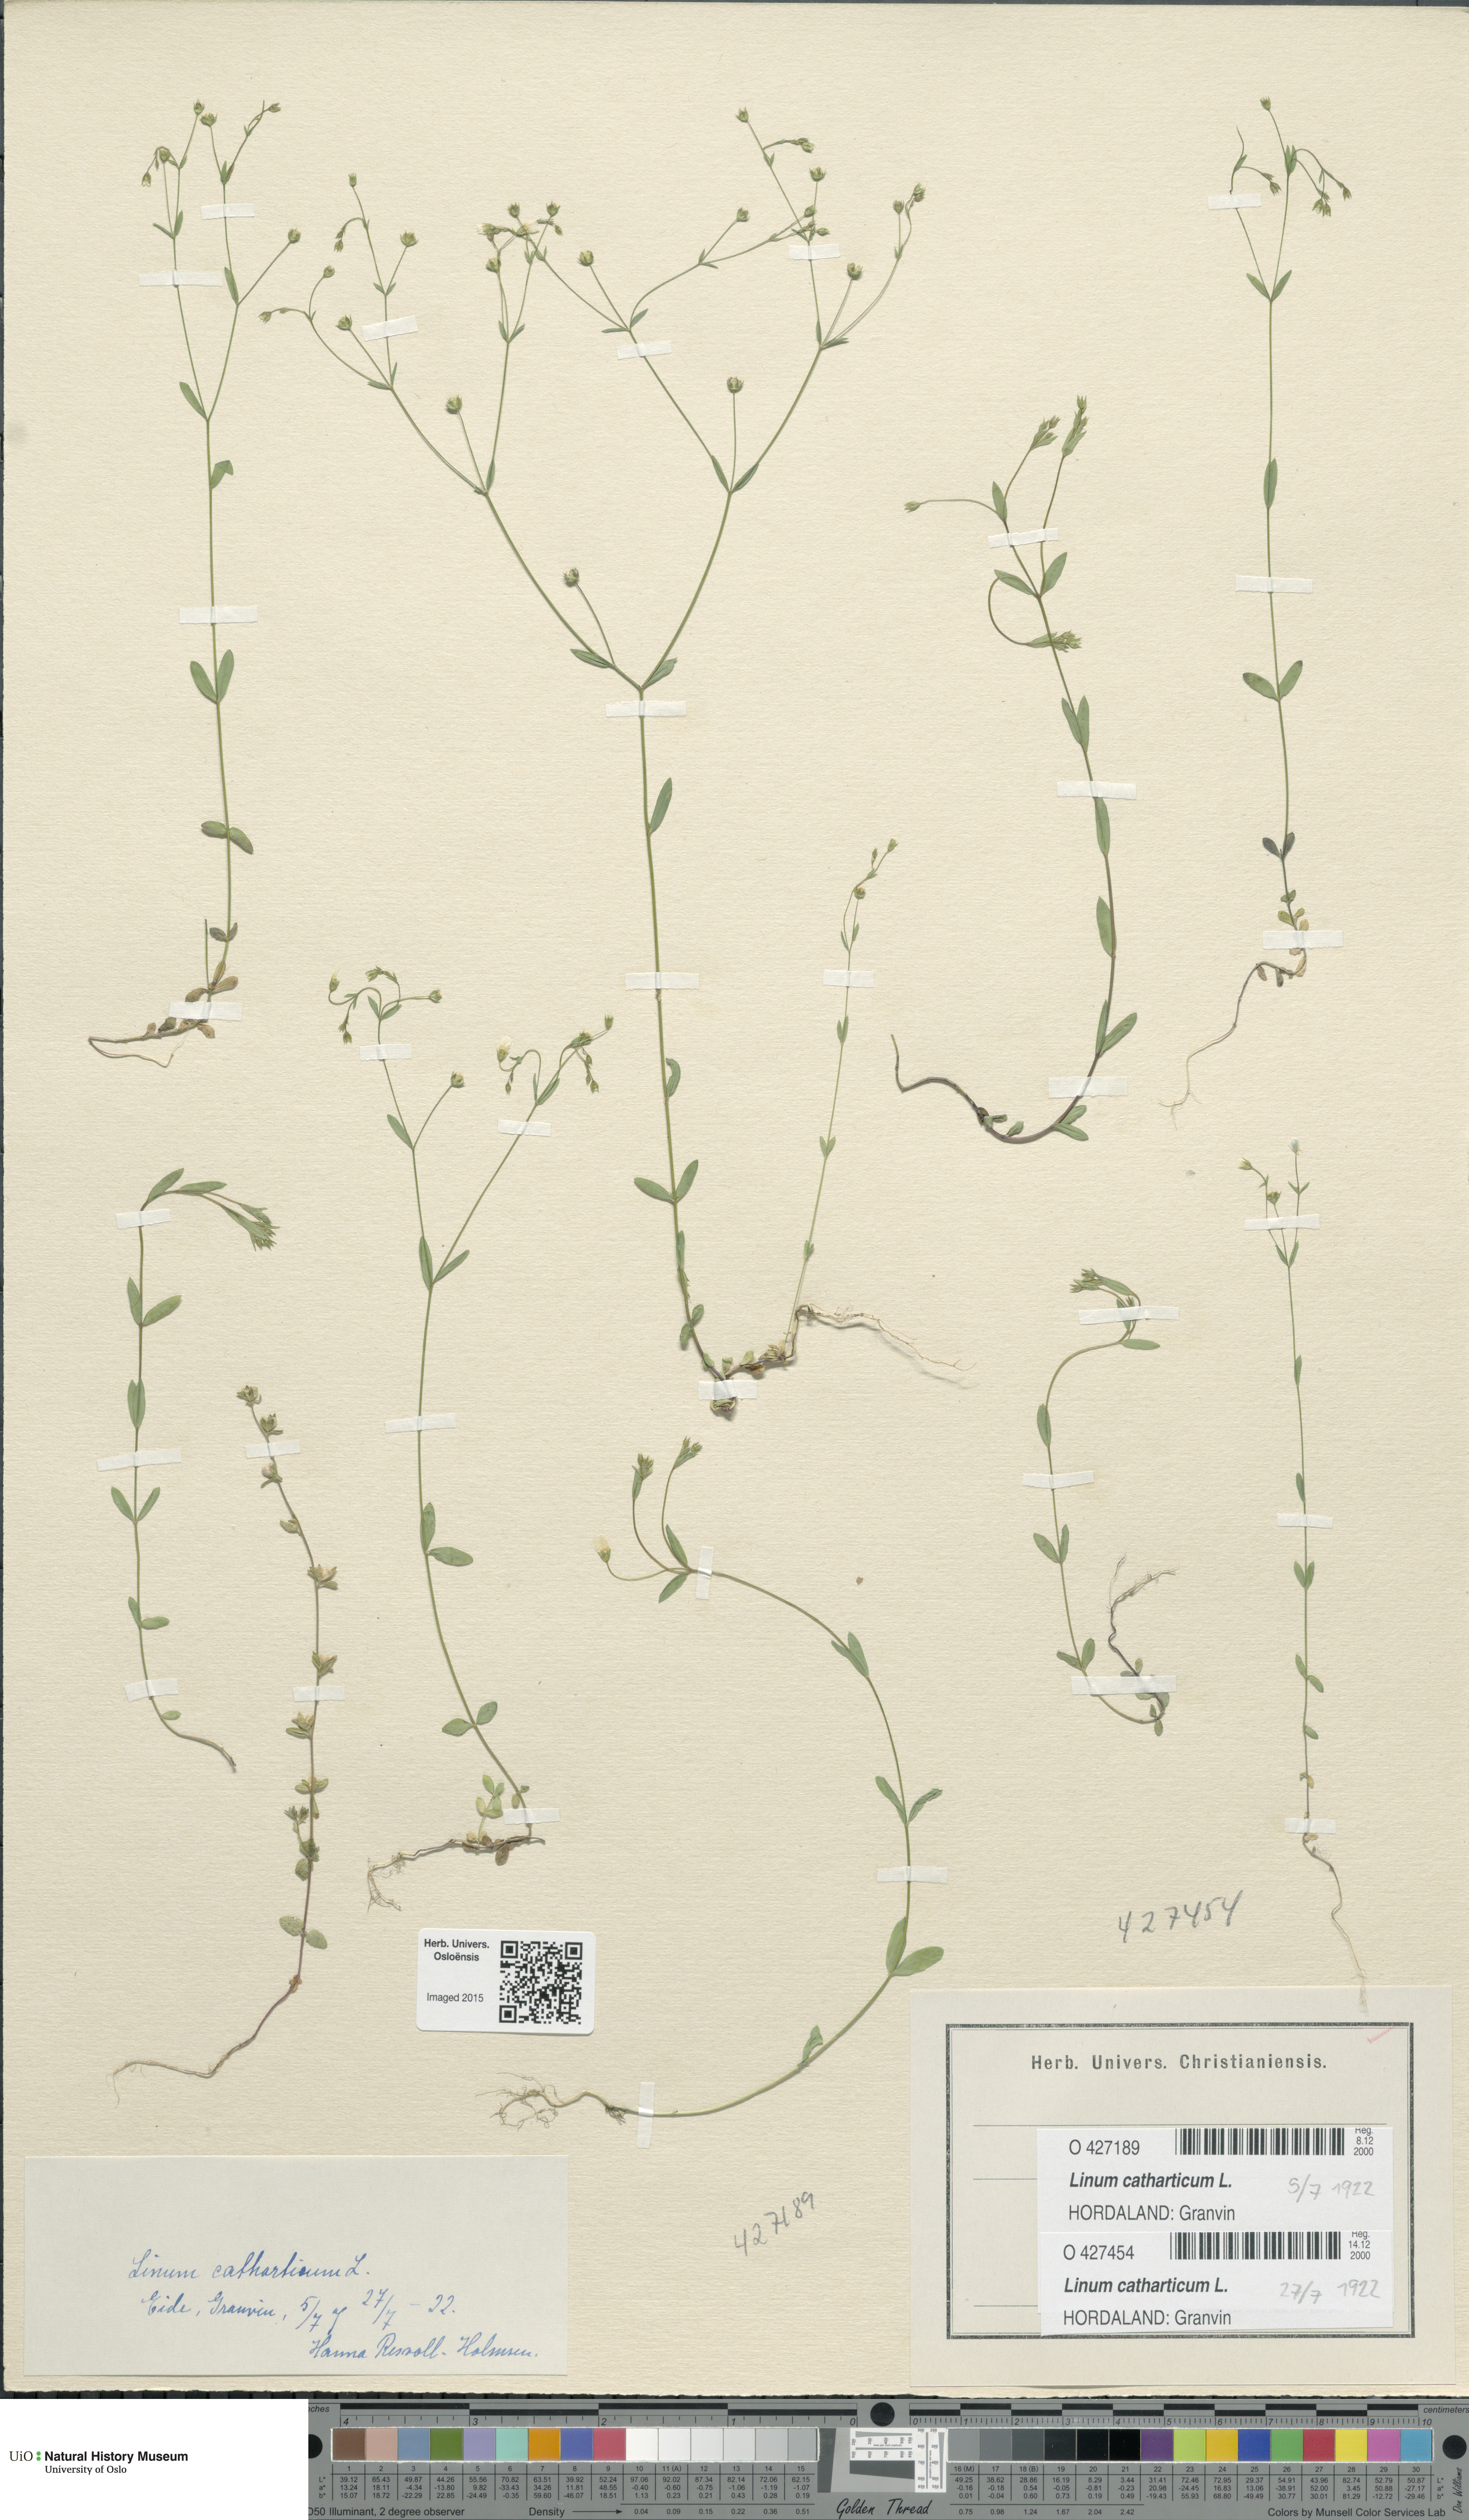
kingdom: Plantae
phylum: Tracheophyta
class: Magnoliopsida
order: Malpighiales
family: Linaceae
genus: Linum
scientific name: Linum catharticum
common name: Fairy flax
